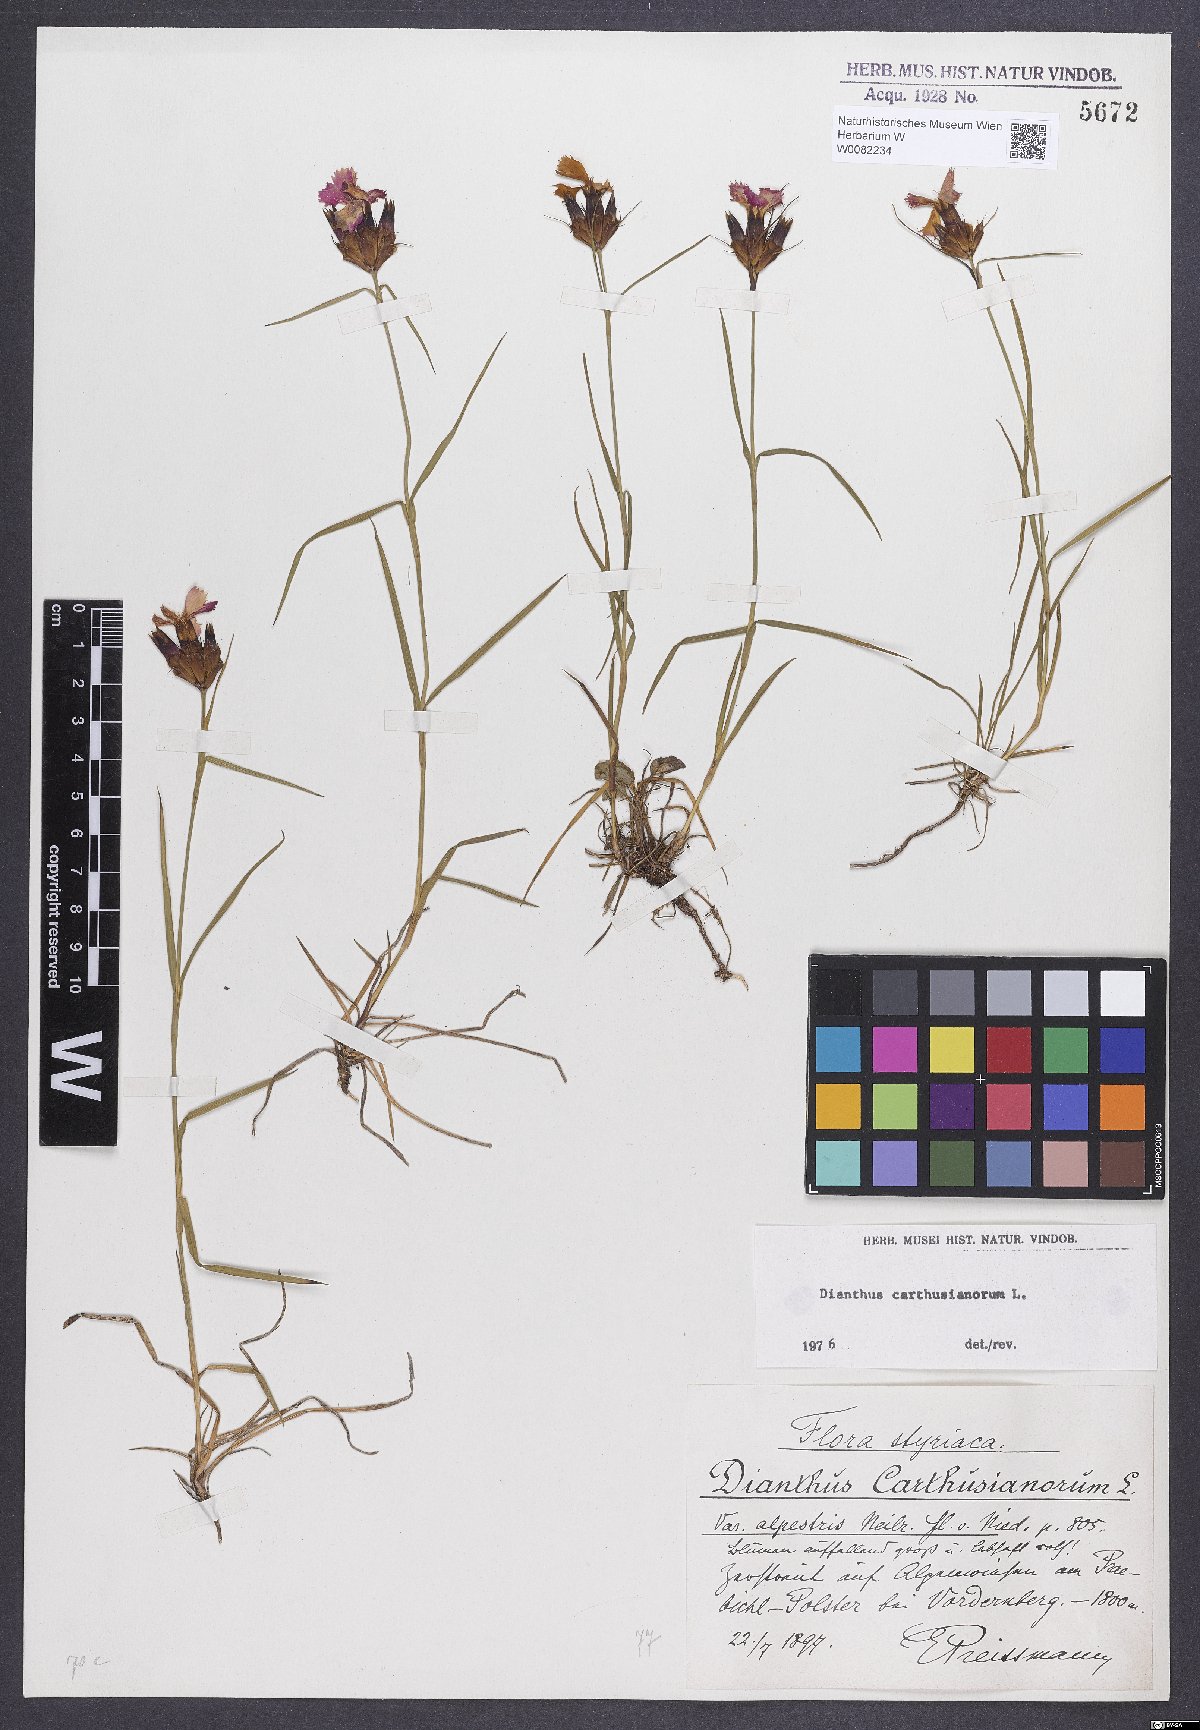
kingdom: Plantae
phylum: Tracheophyta
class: Magnoliopsida
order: Caryophyllales
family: Caryophyllaceae
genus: Dianthus
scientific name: Dianthus carthusianorum
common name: Carthusian pink
